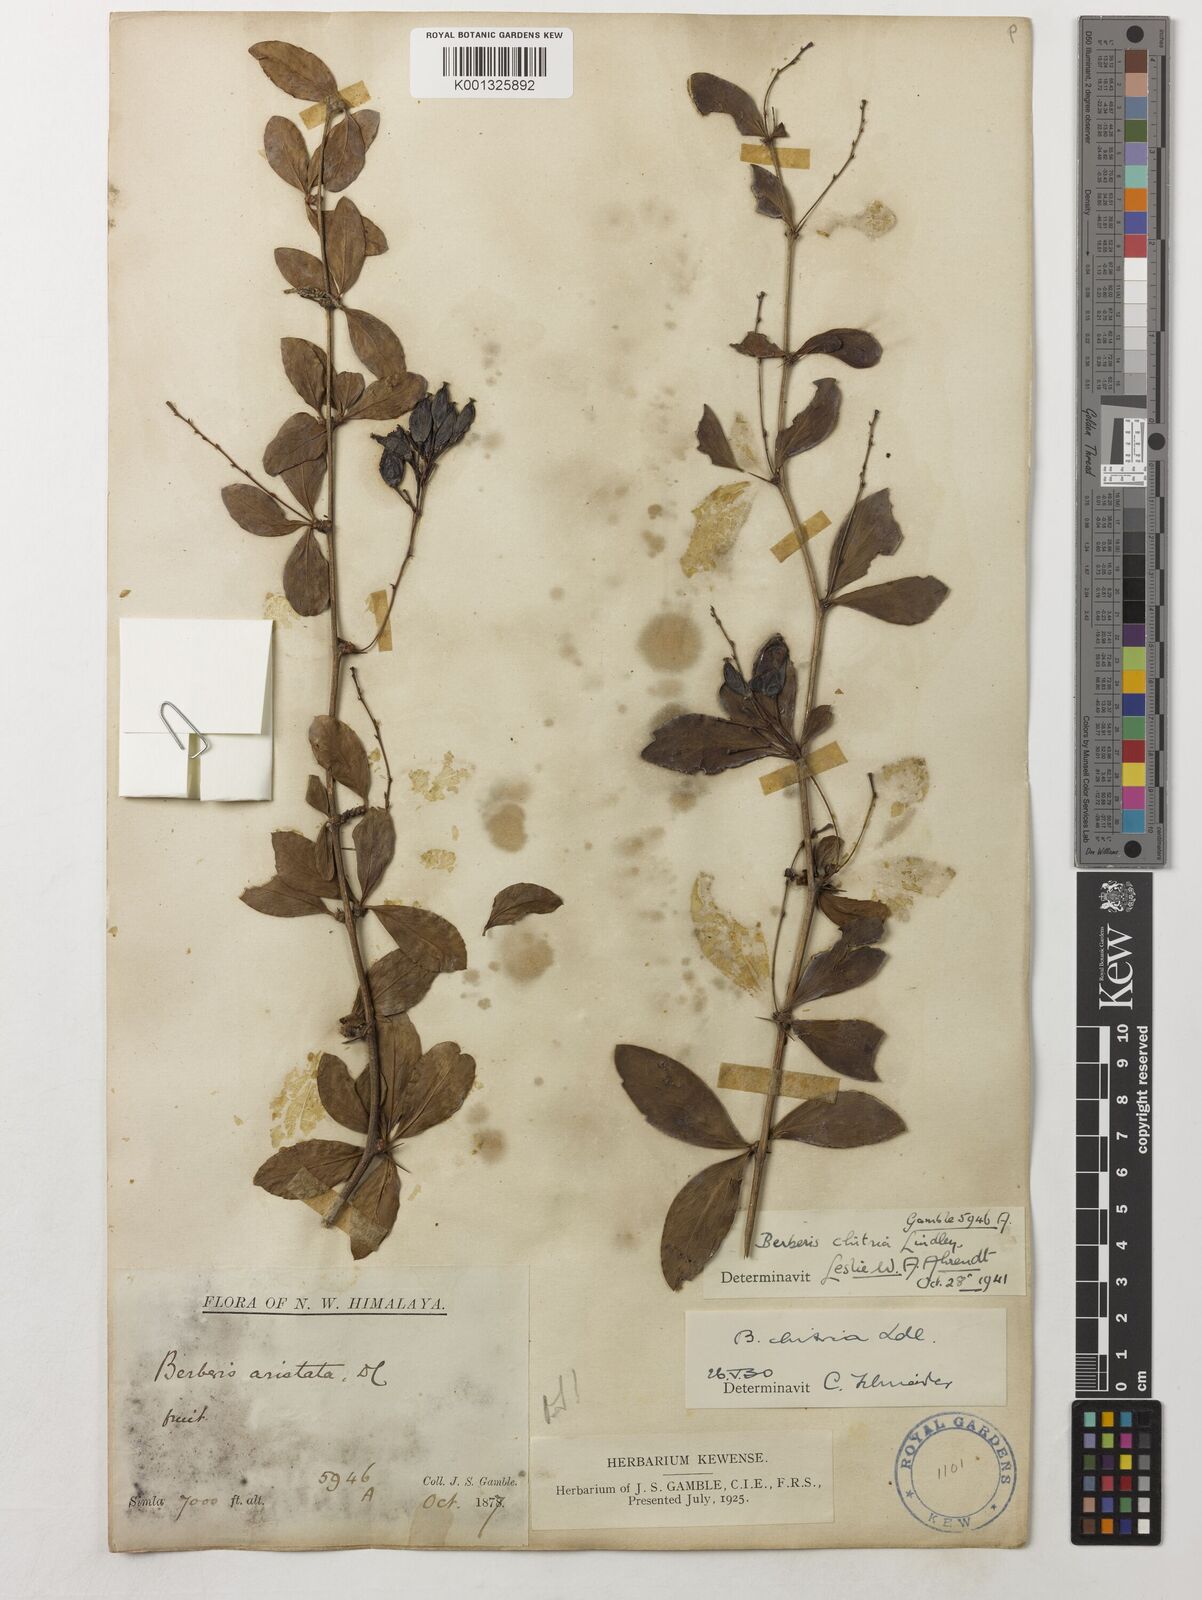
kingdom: Plantae
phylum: Tracheophyta
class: Magnoliopsida
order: Ranunculales
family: Berberidaceae
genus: Berberis
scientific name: Berberis chitria
